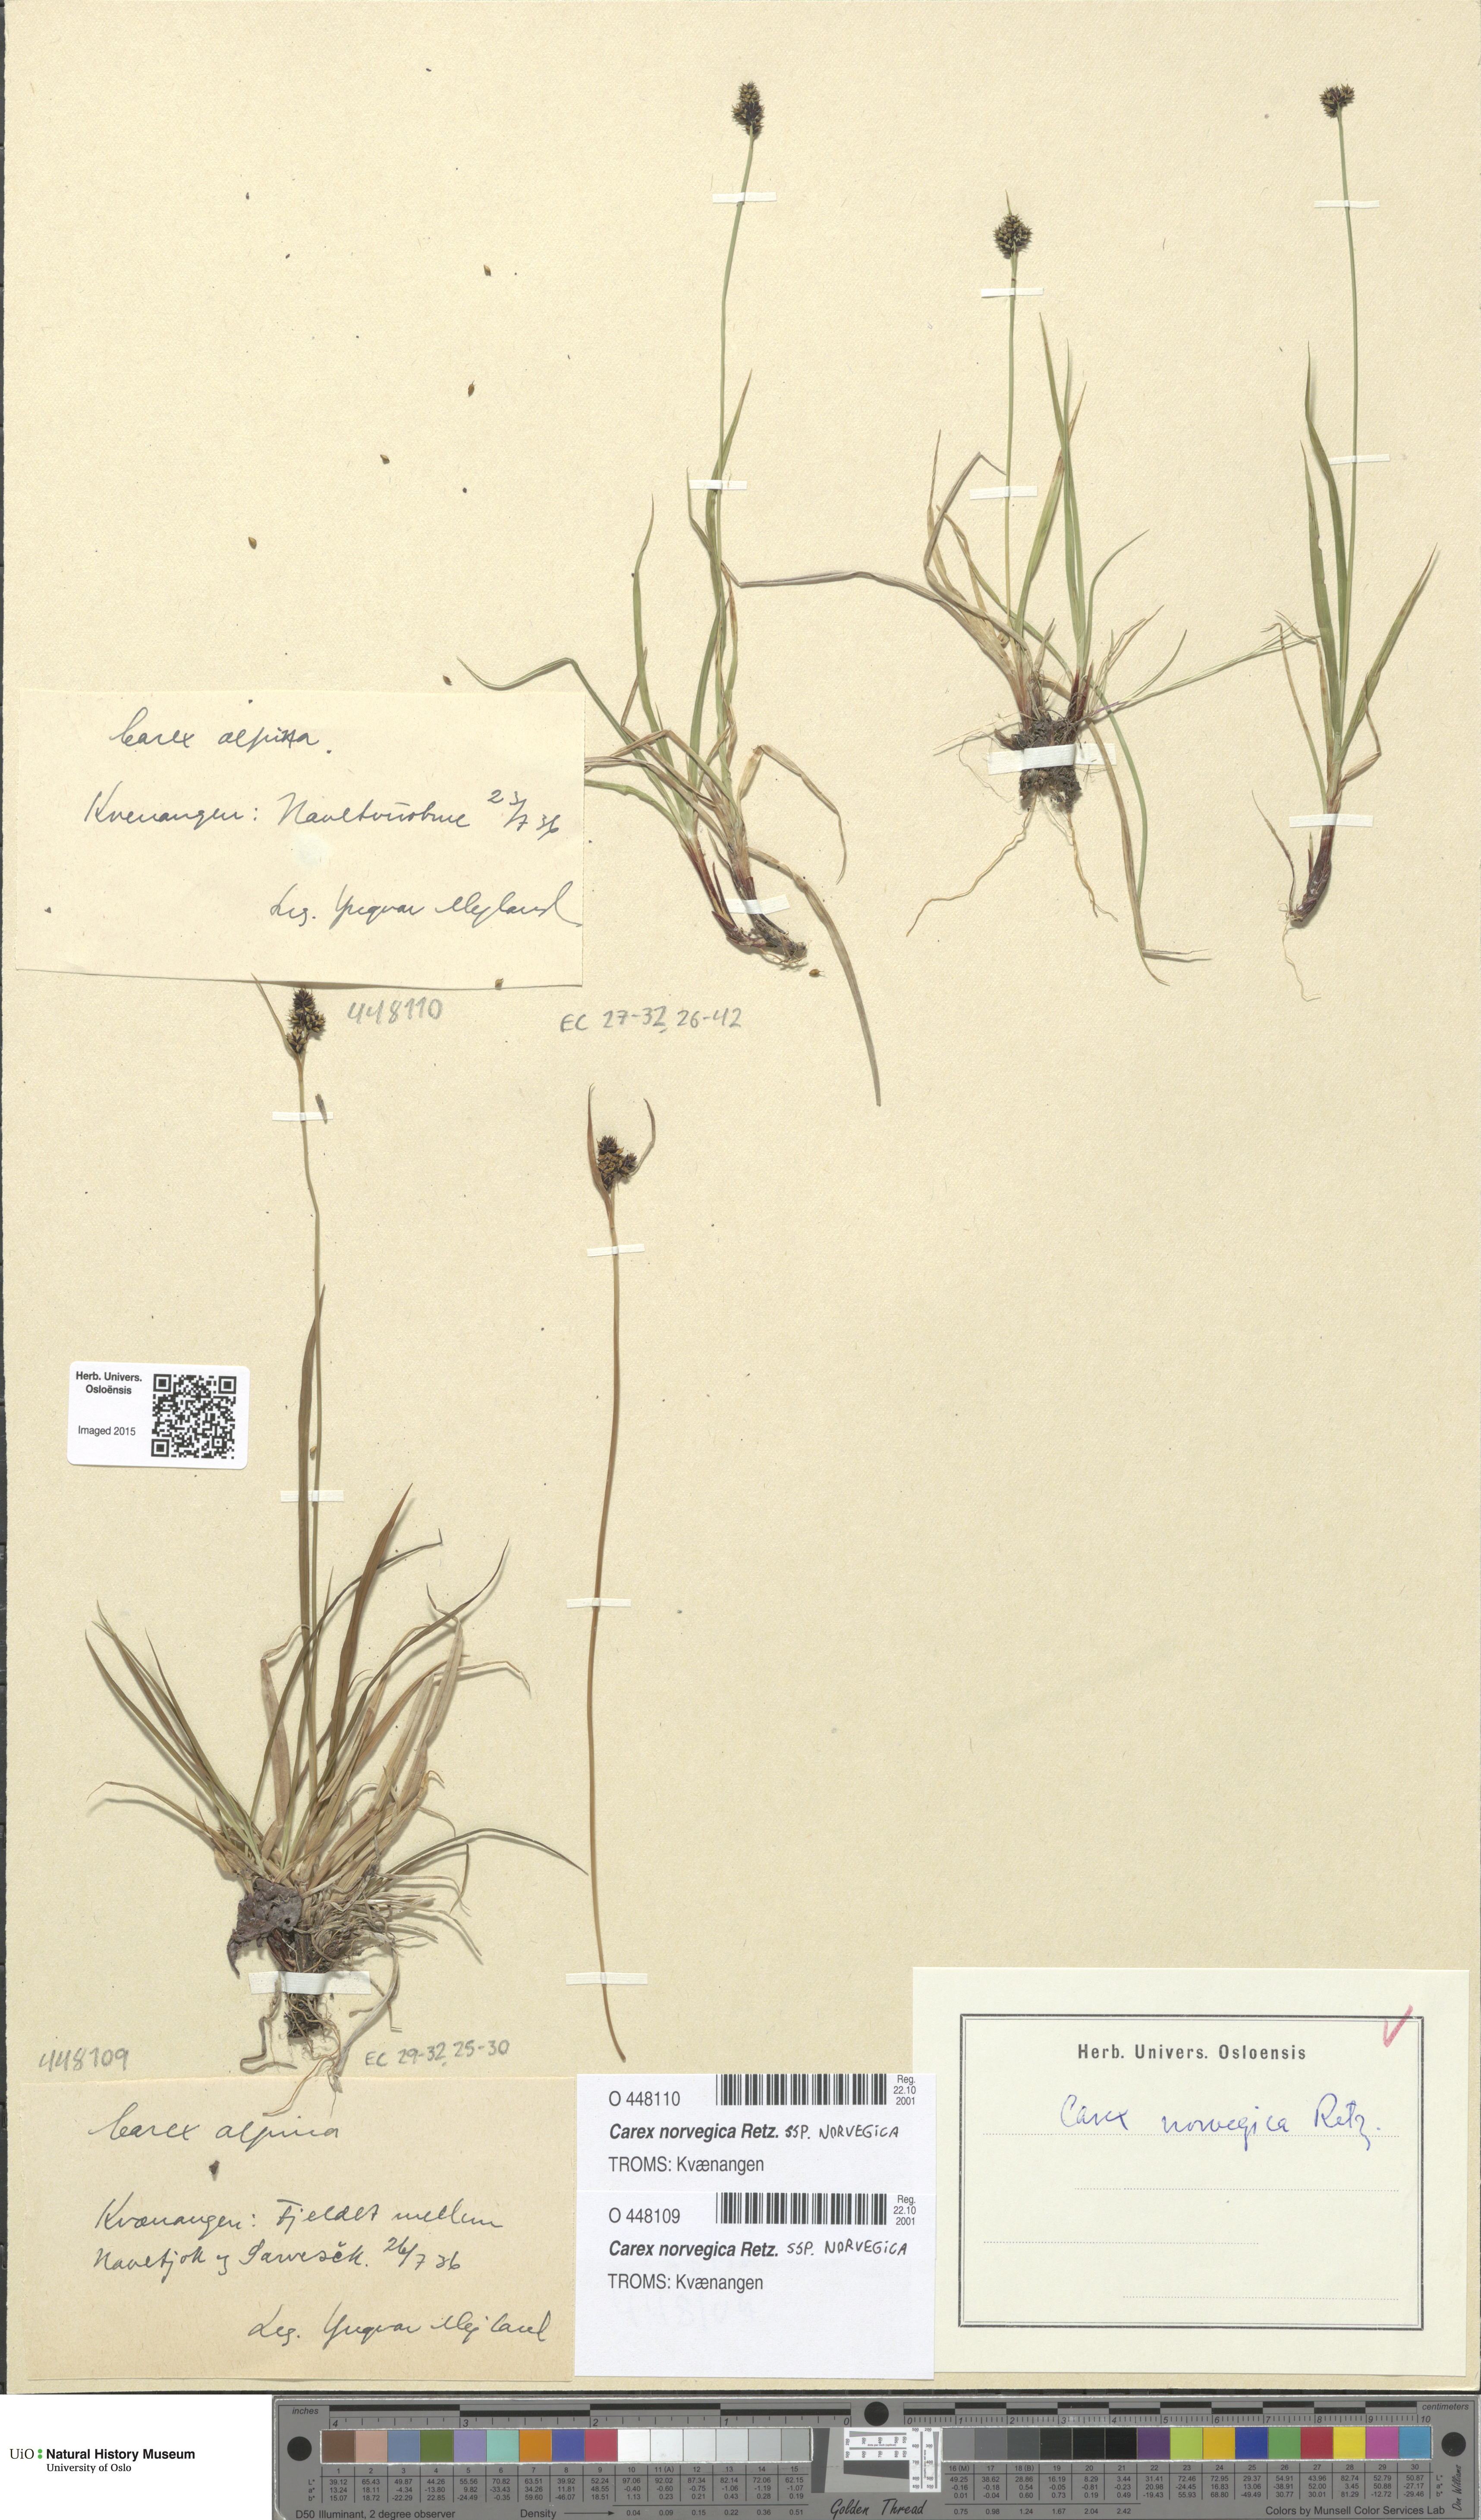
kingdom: Plantae
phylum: Tracheophyta
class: Liliopsida
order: Poales
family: Cyperaceae
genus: Carex
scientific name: Carex norvegica
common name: Close-headed alpine-sedge
